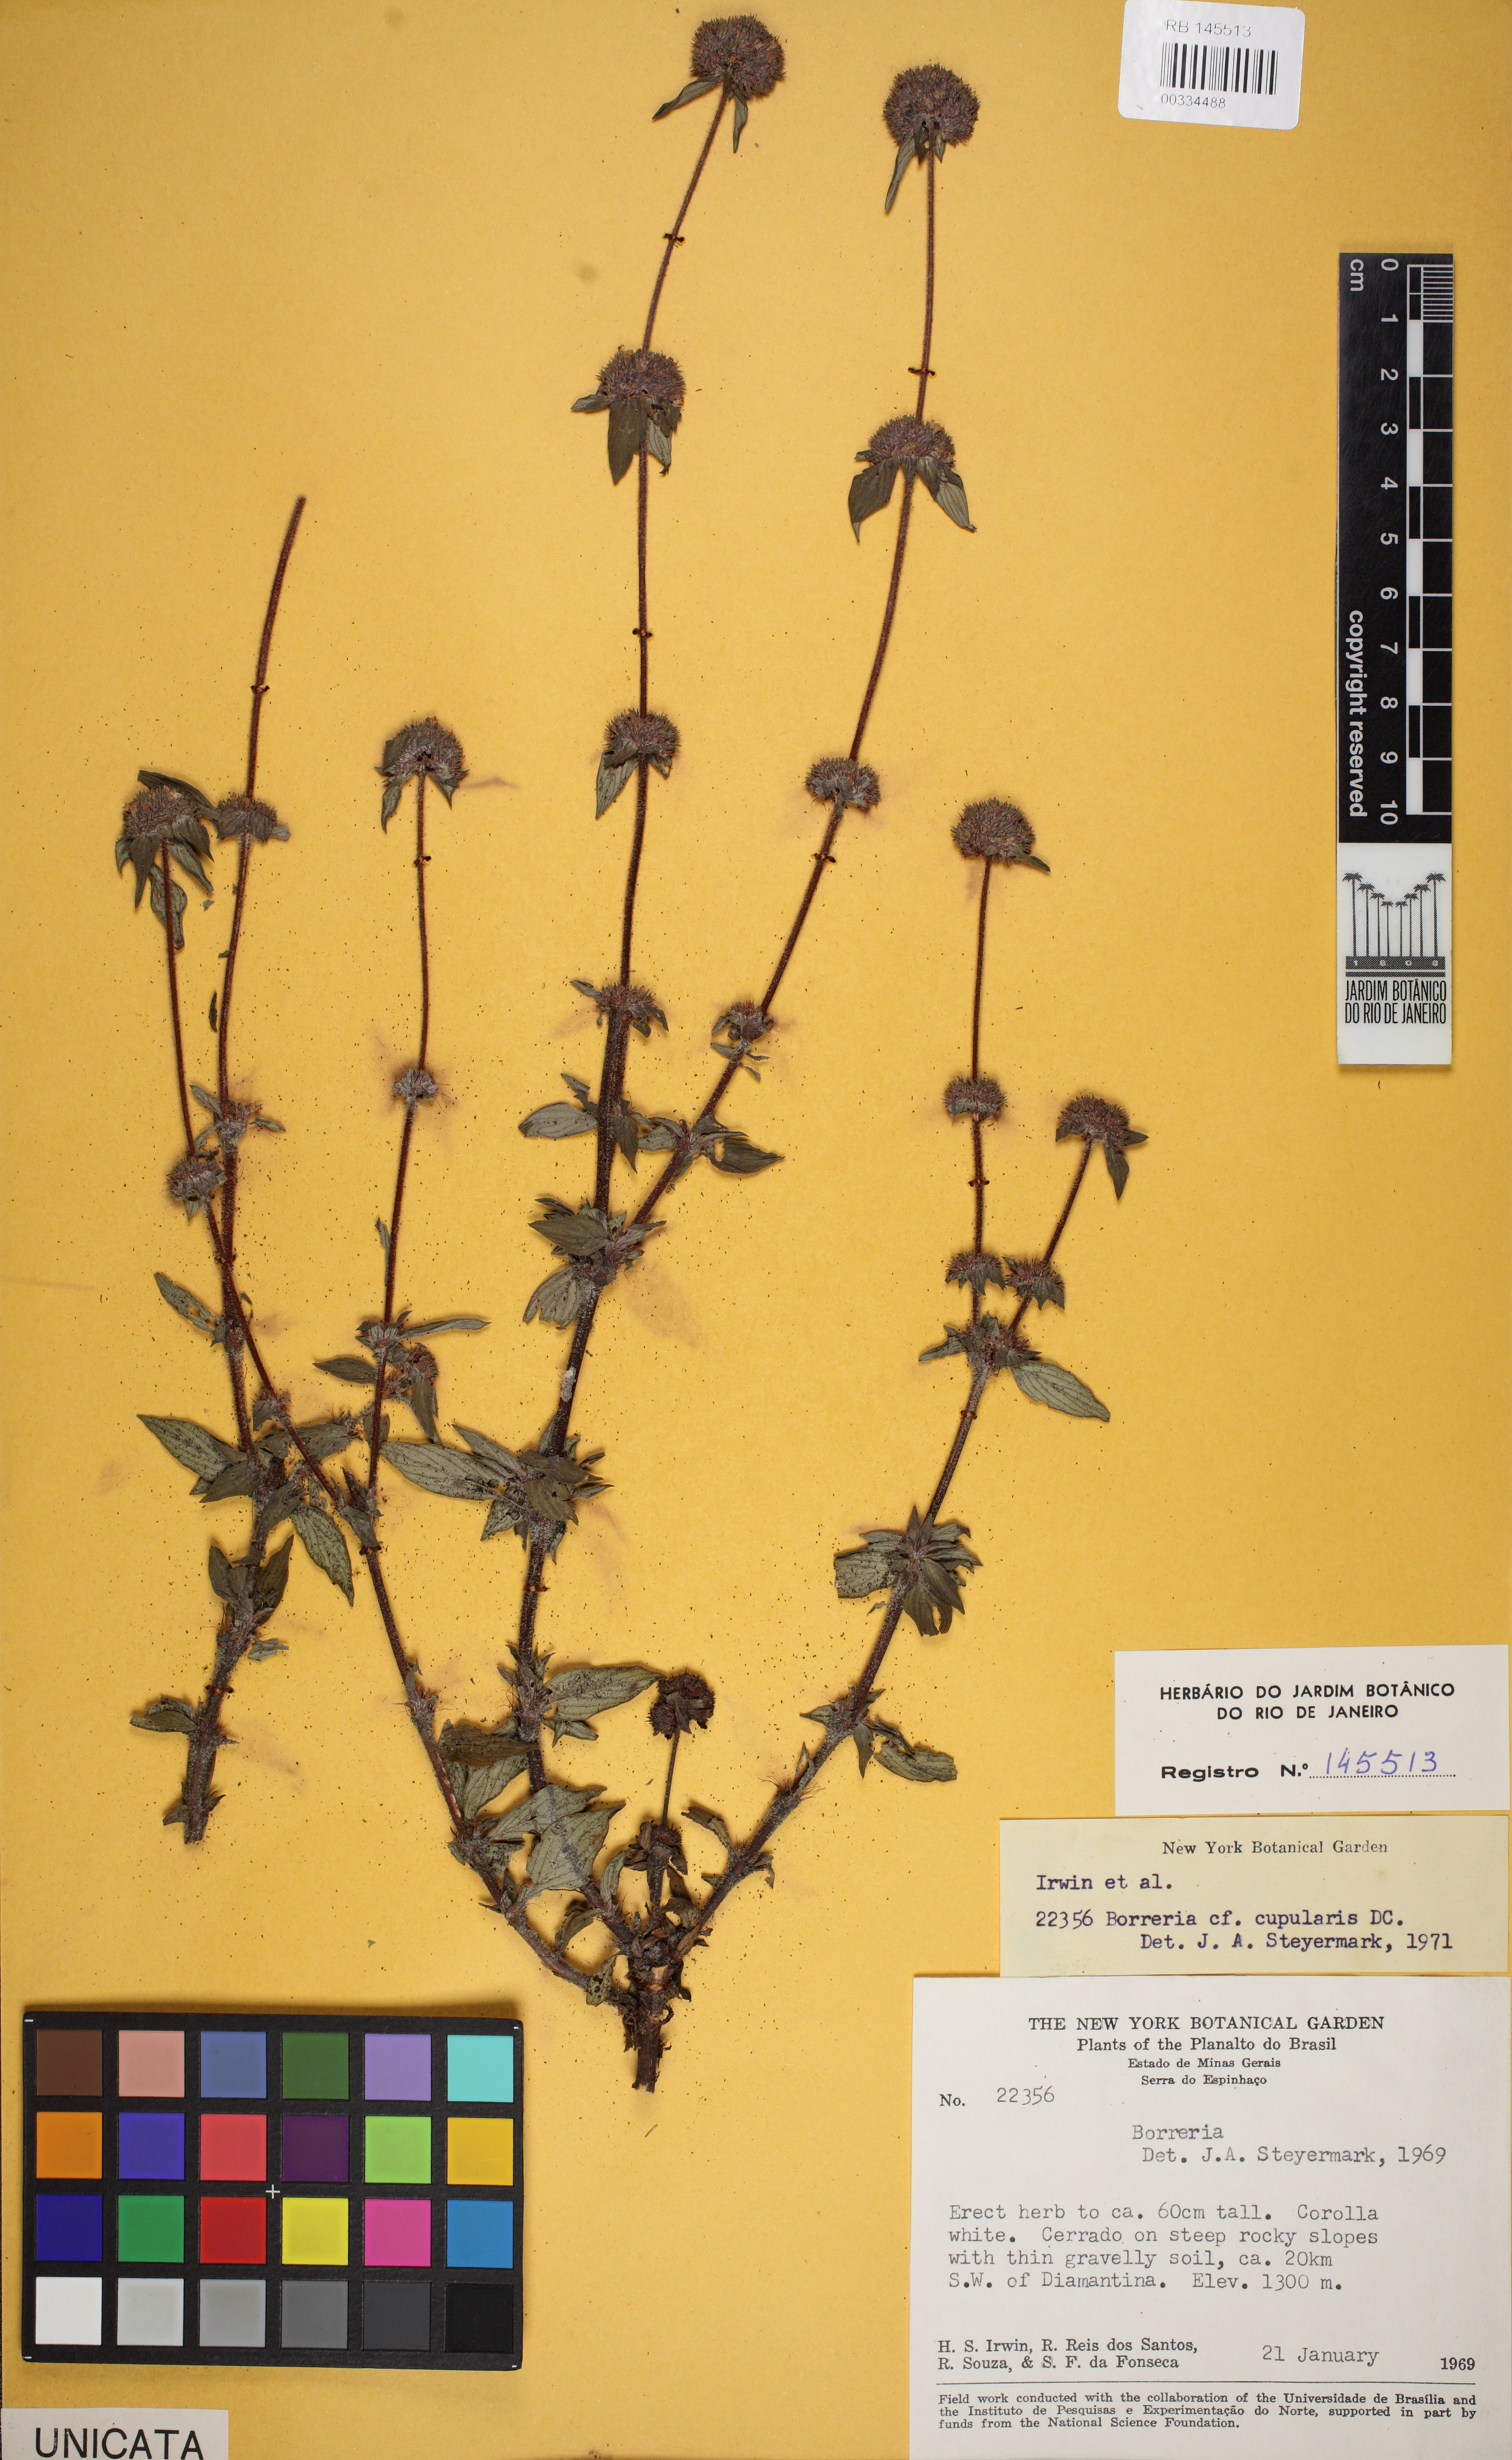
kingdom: Plantae
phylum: Tracheophyta
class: Magnoliopsida
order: Gentianales
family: Rubiaceae
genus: Spermacoce
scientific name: Spermacoce capitata
